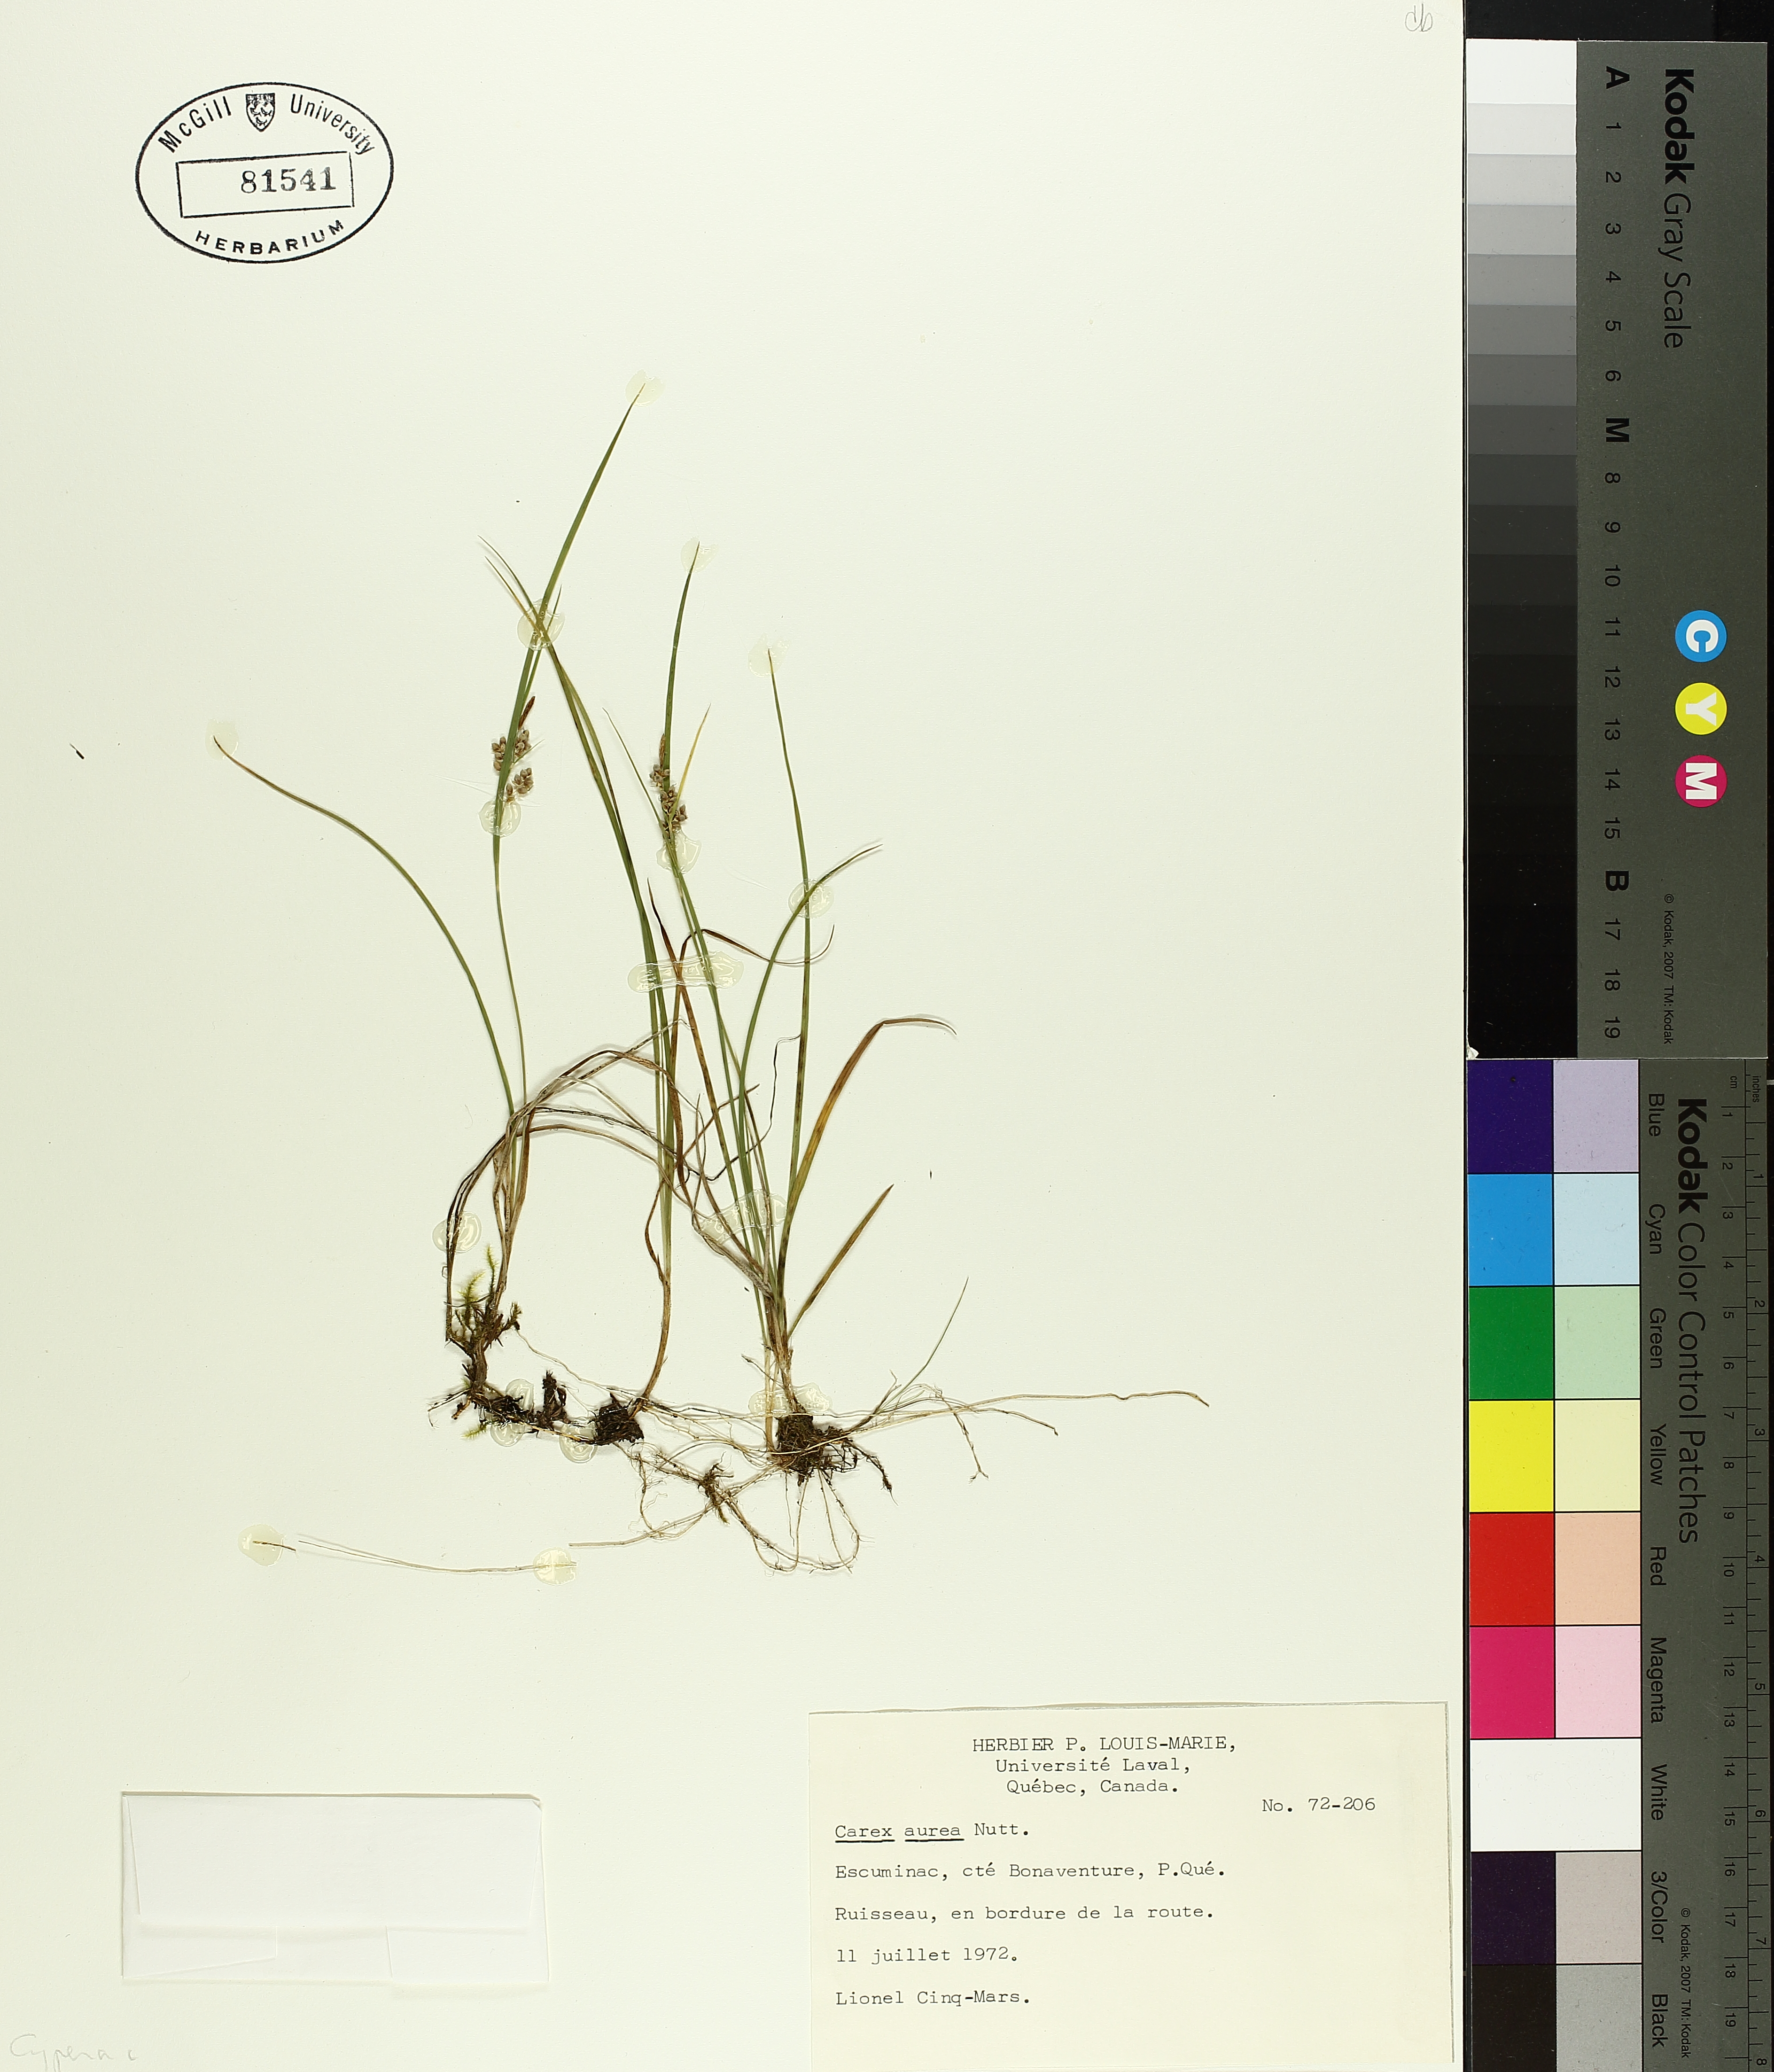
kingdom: Plantae
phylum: Tracheophyta
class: Liliopsida
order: Poales
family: Cyperaceae
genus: Carex
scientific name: Carex aurea
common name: Golden sedge
